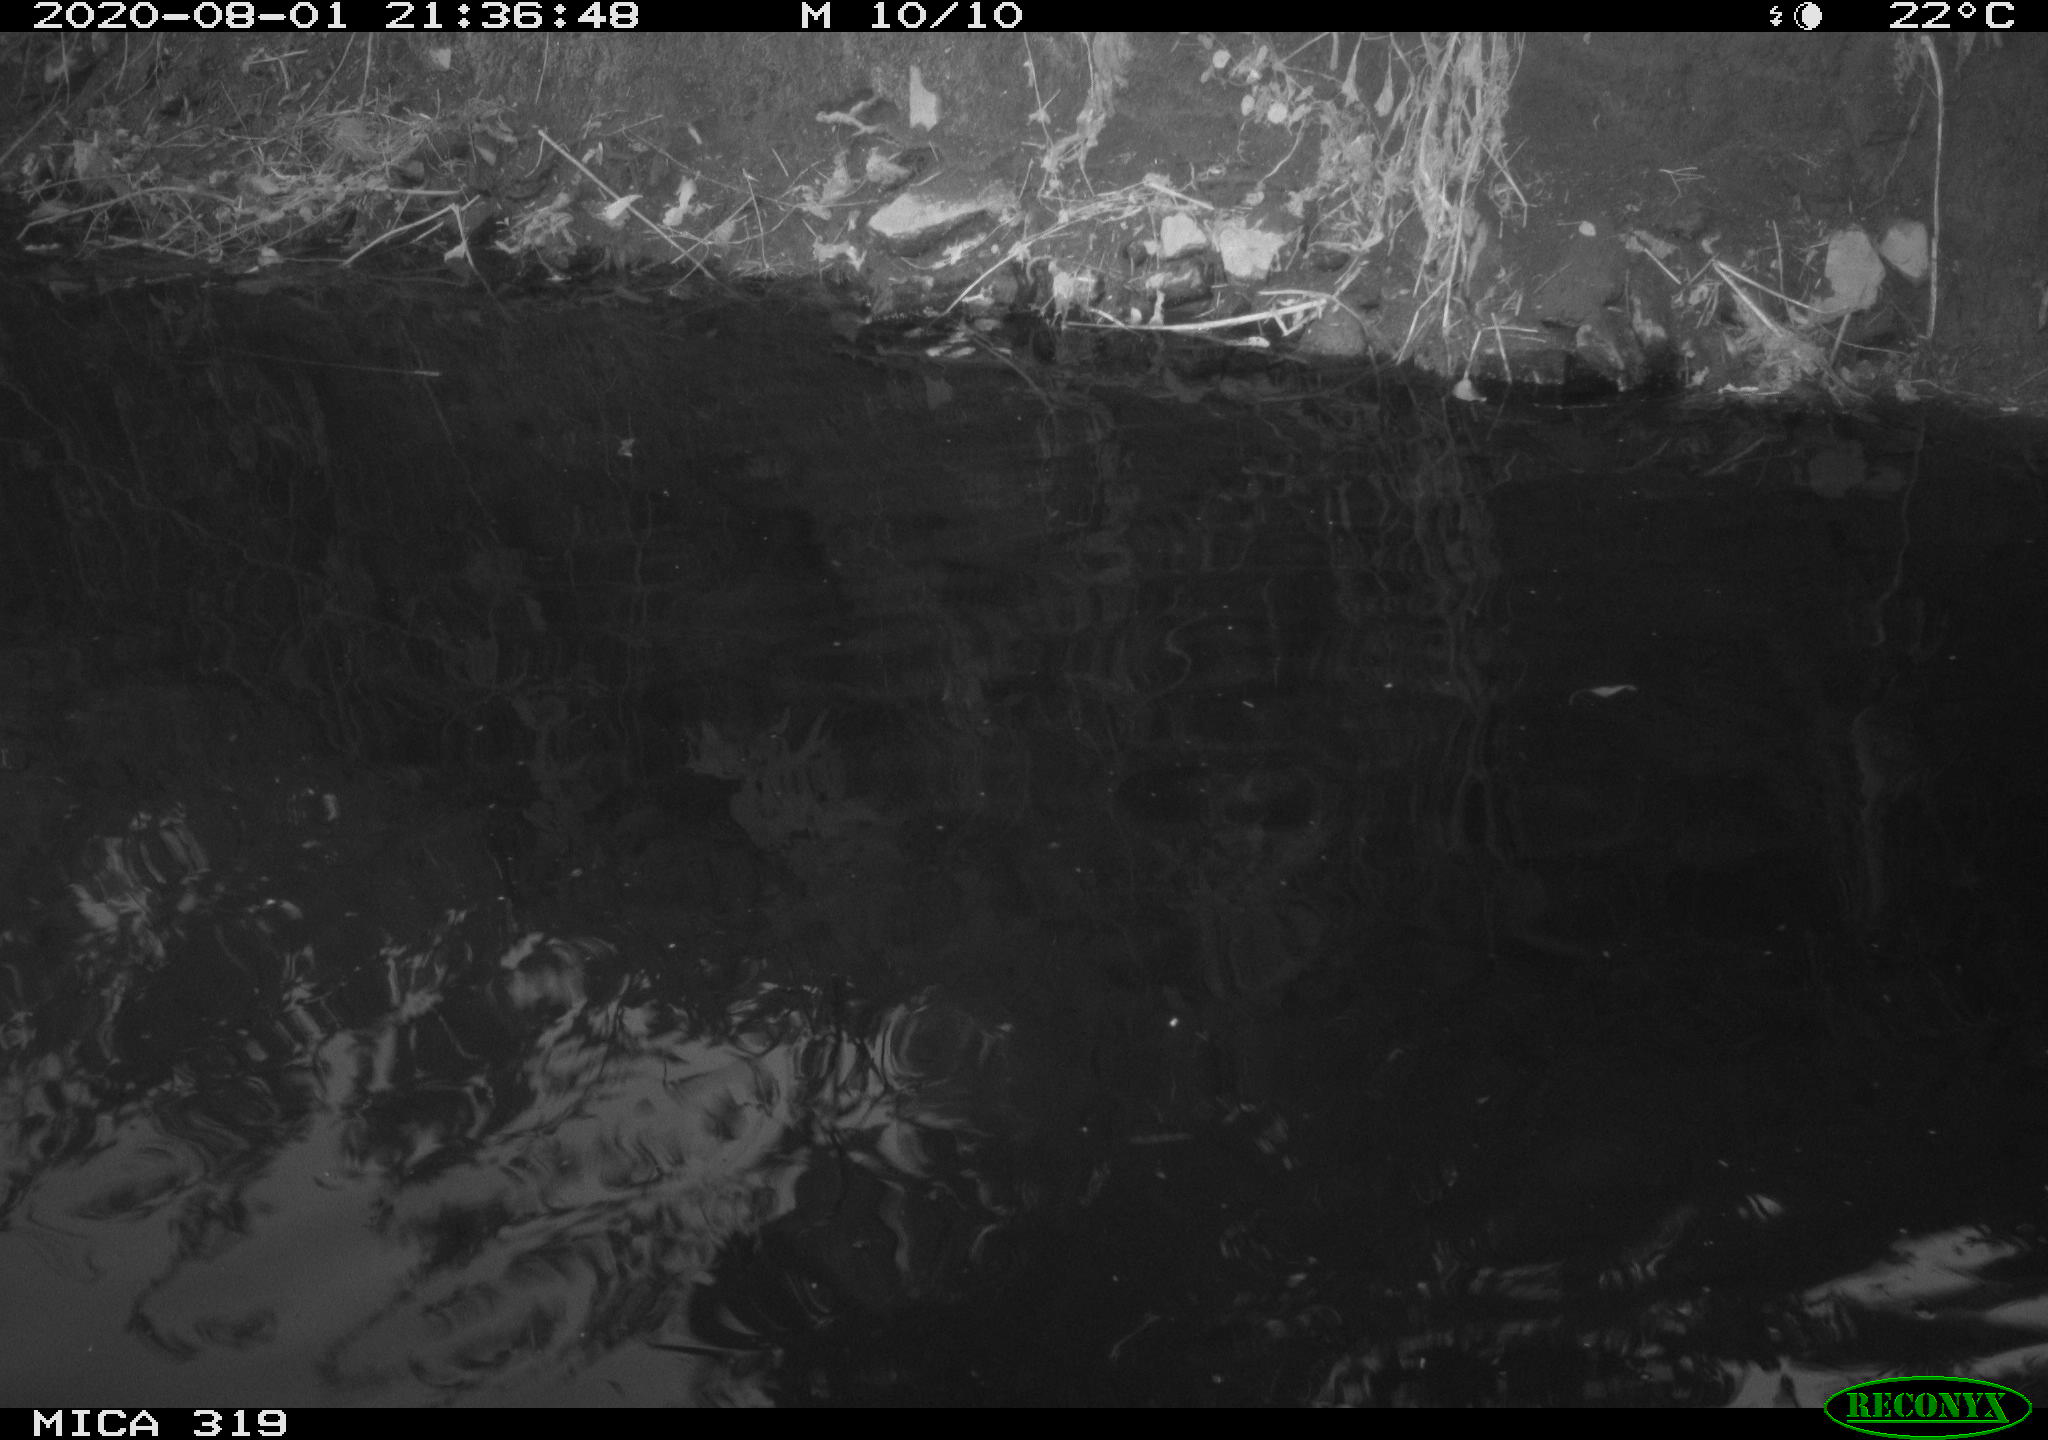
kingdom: Animalia
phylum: Chordata
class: Aves
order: Anseriformes
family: Anatidae
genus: Anas
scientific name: Anas platyrhynchos
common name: Mallard
